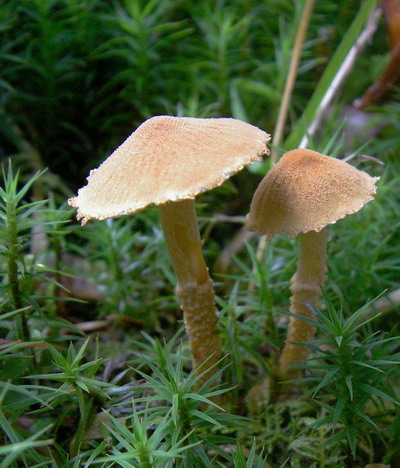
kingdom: Fungi
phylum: Basidiomycota
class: Agaricomycetes
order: Agaricales
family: Tricholomataceae
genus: Cystoderma
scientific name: Cystoderma amianthinum
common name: okkergul grynhat
